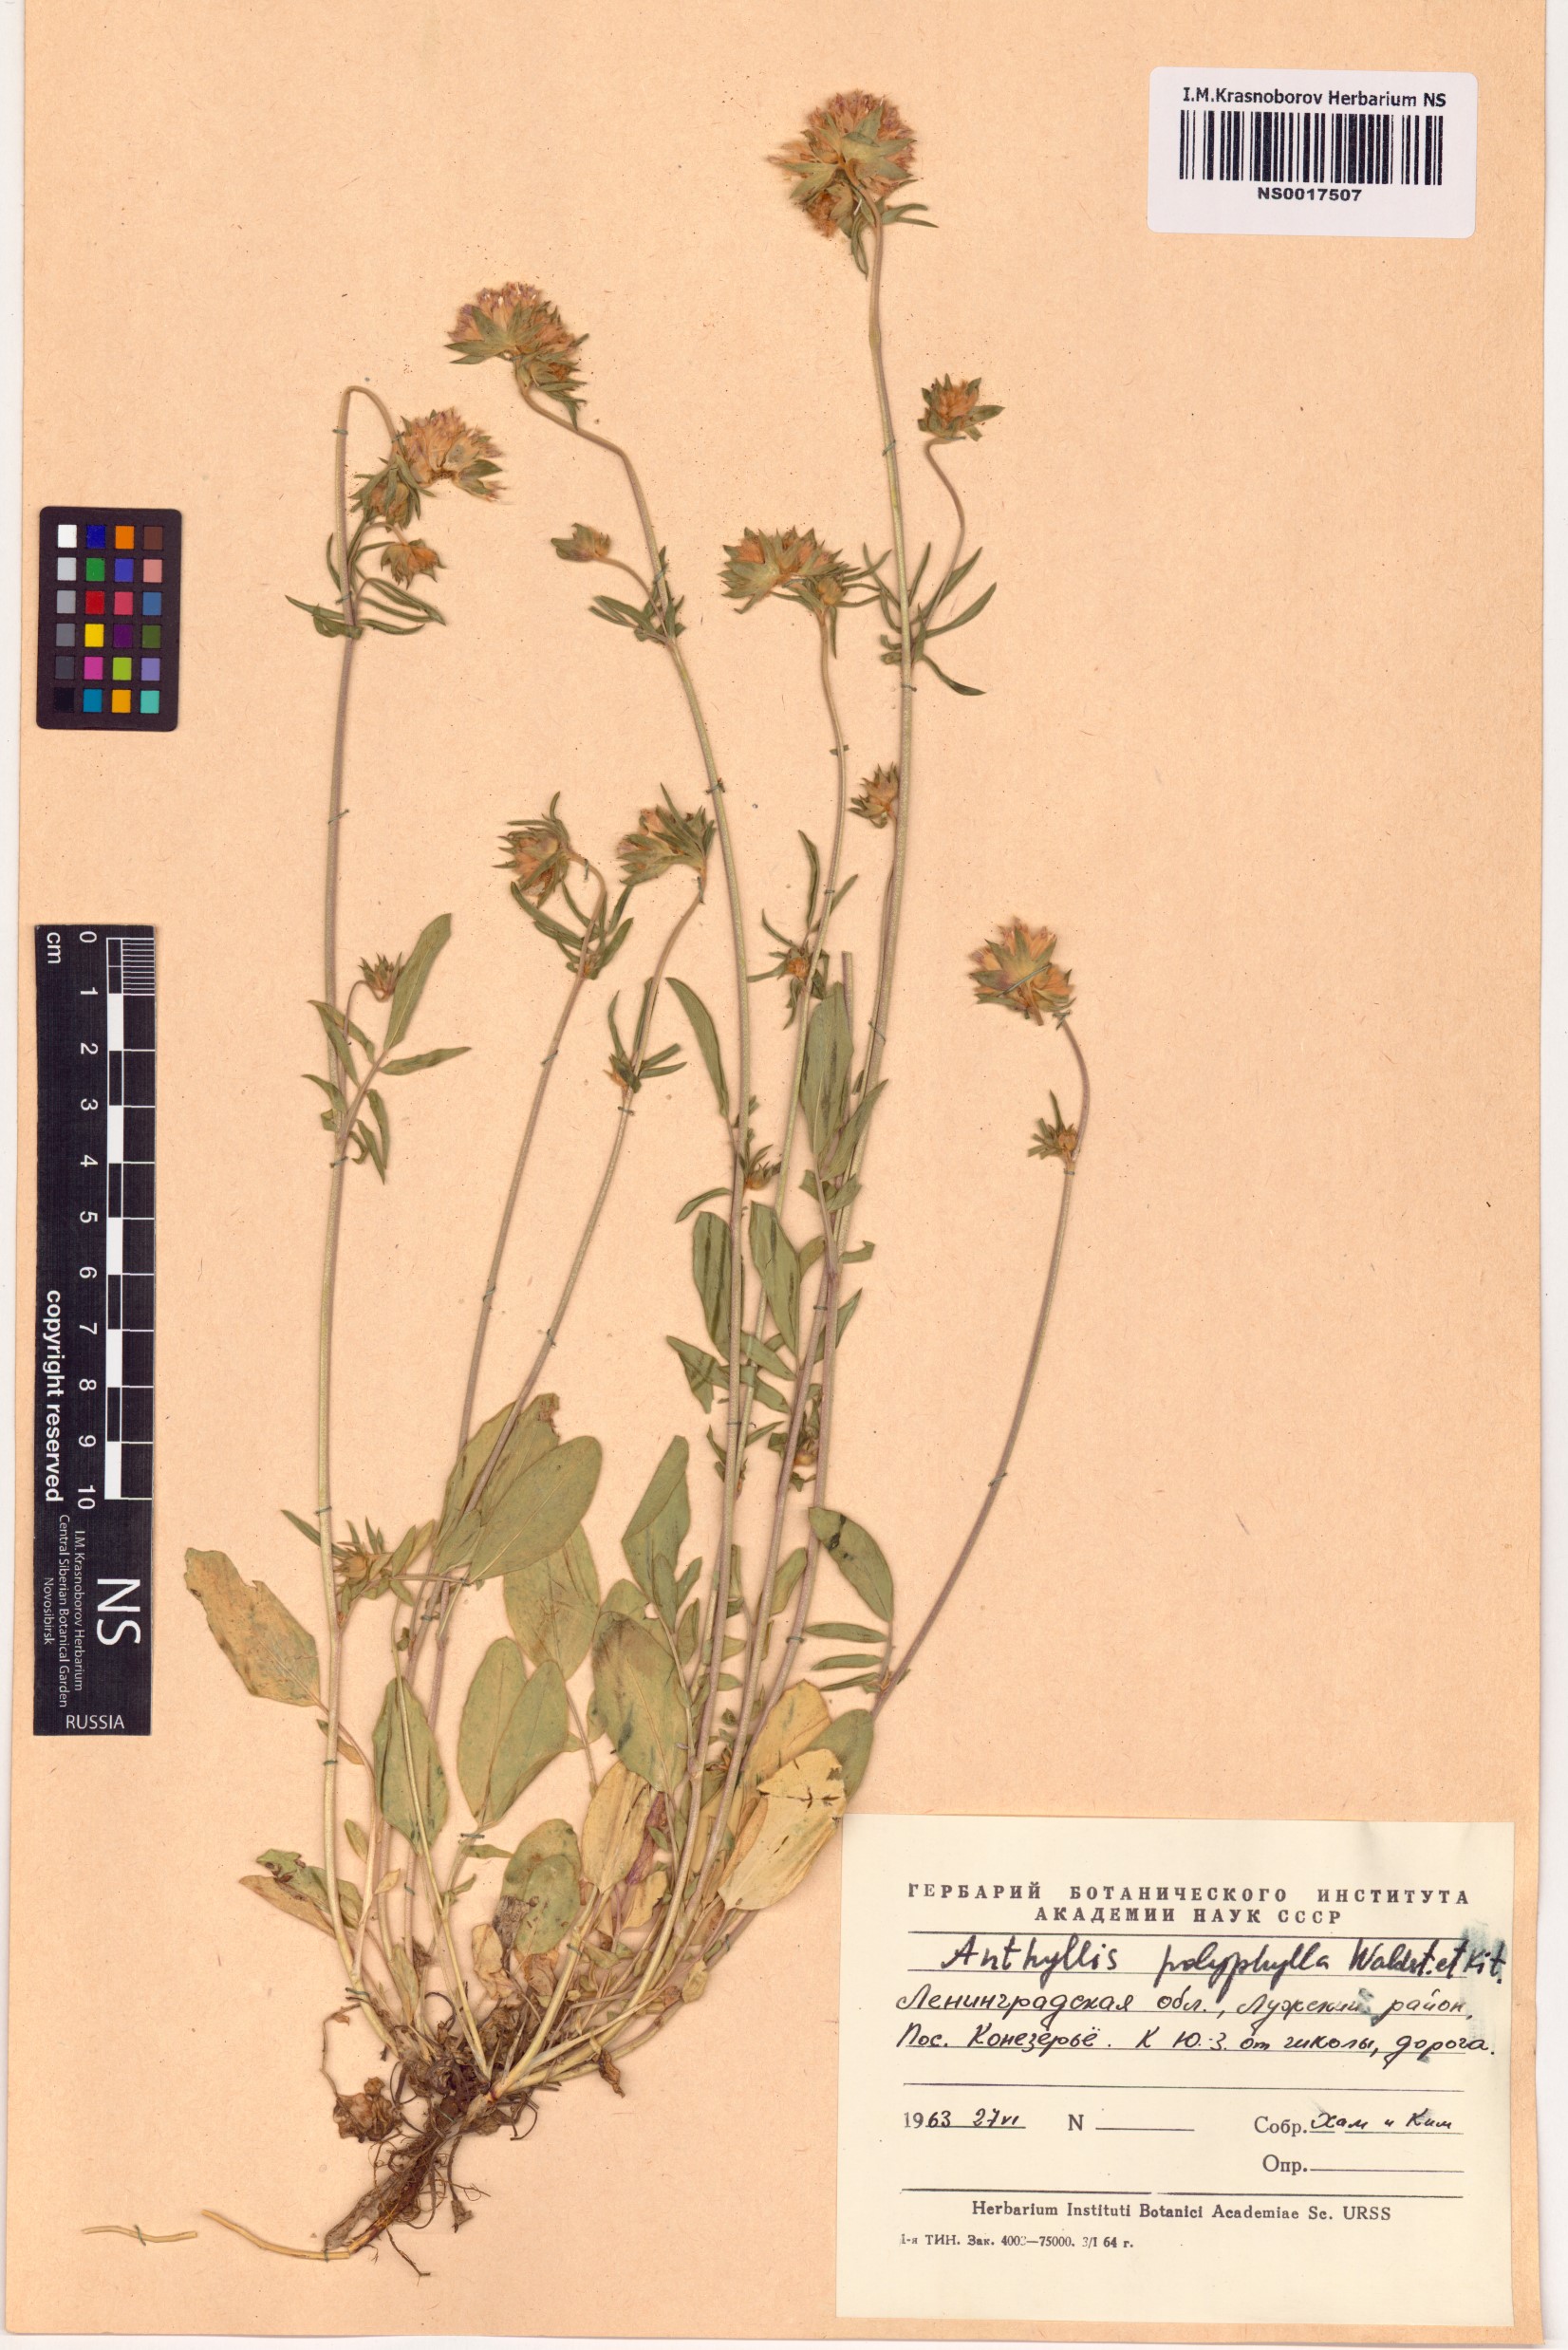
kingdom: Plantae
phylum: Tracheophyta
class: Magnoliopsida
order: Fabales
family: Fabaceae
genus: Anthyllis
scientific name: Anthyllis vulneraria
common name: Kidney vetch
